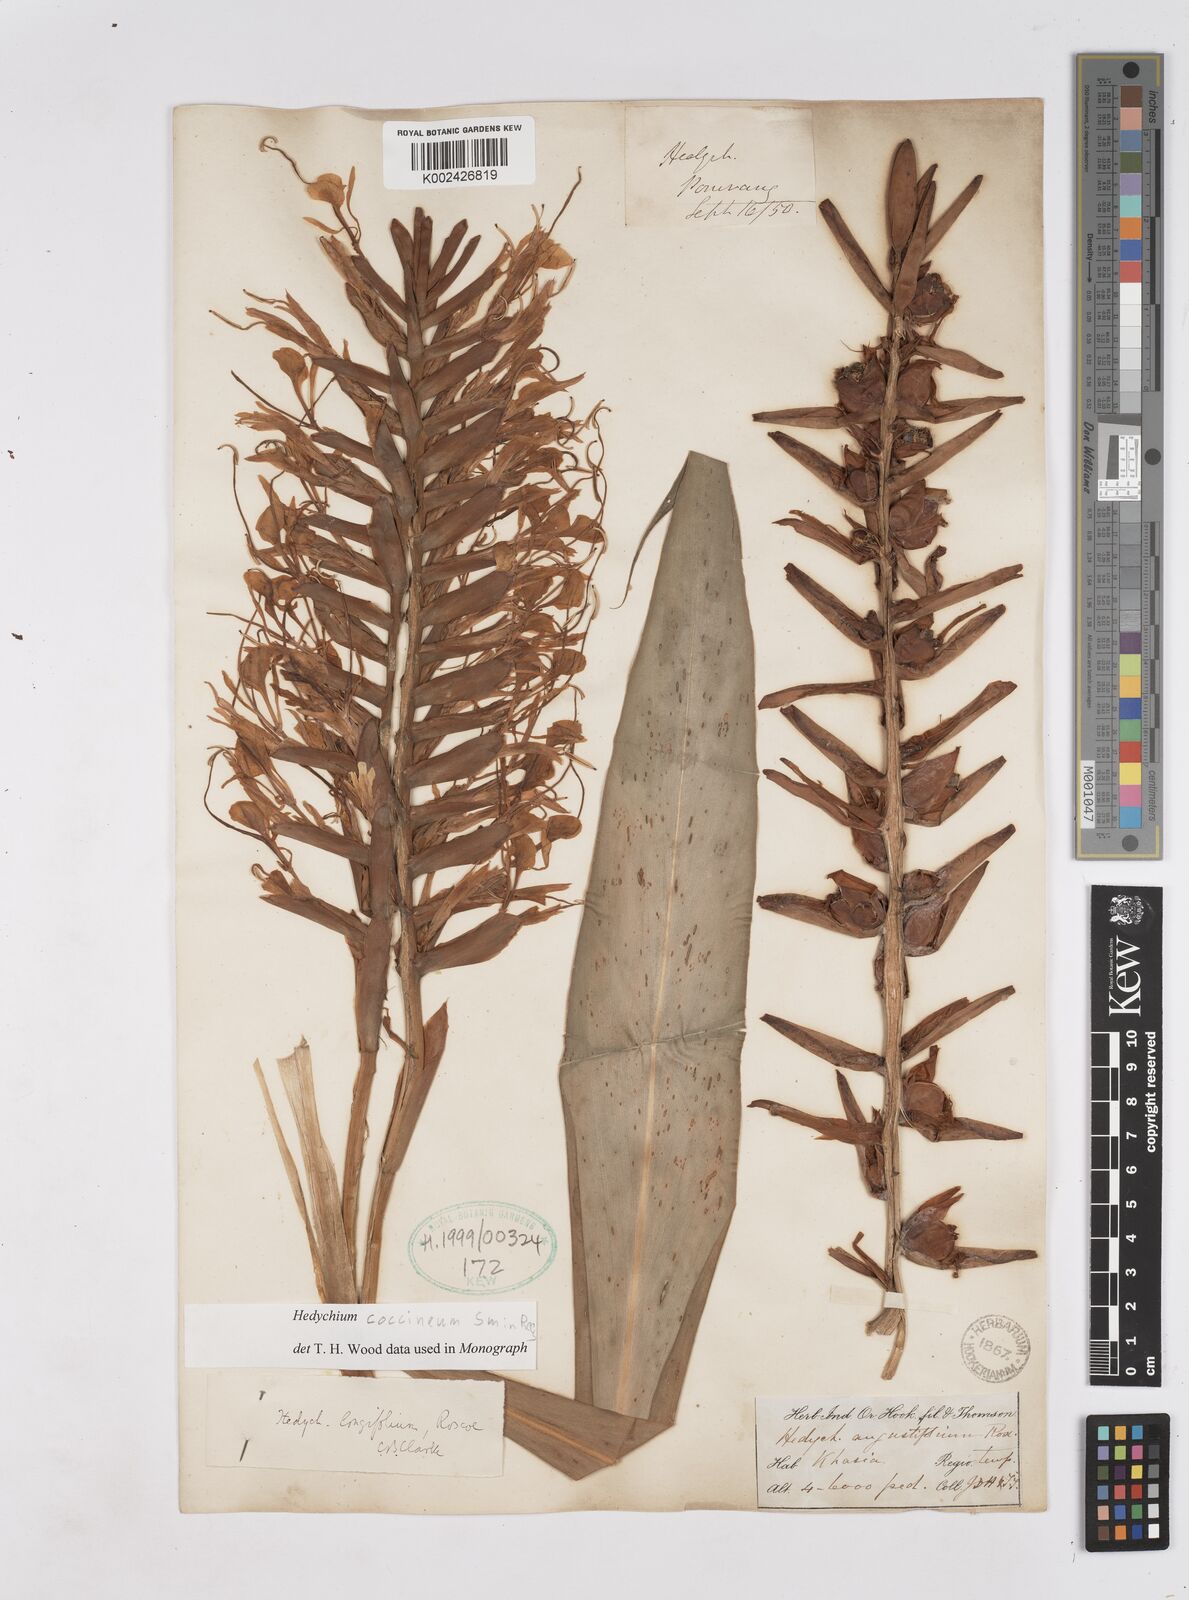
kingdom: Plantae
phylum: Tracheophyta
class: Liliopsida
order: Zingiberales
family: Zingiberaceae
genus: Hedychium
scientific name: Hedychium coccineum
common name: Red ginger-lily
